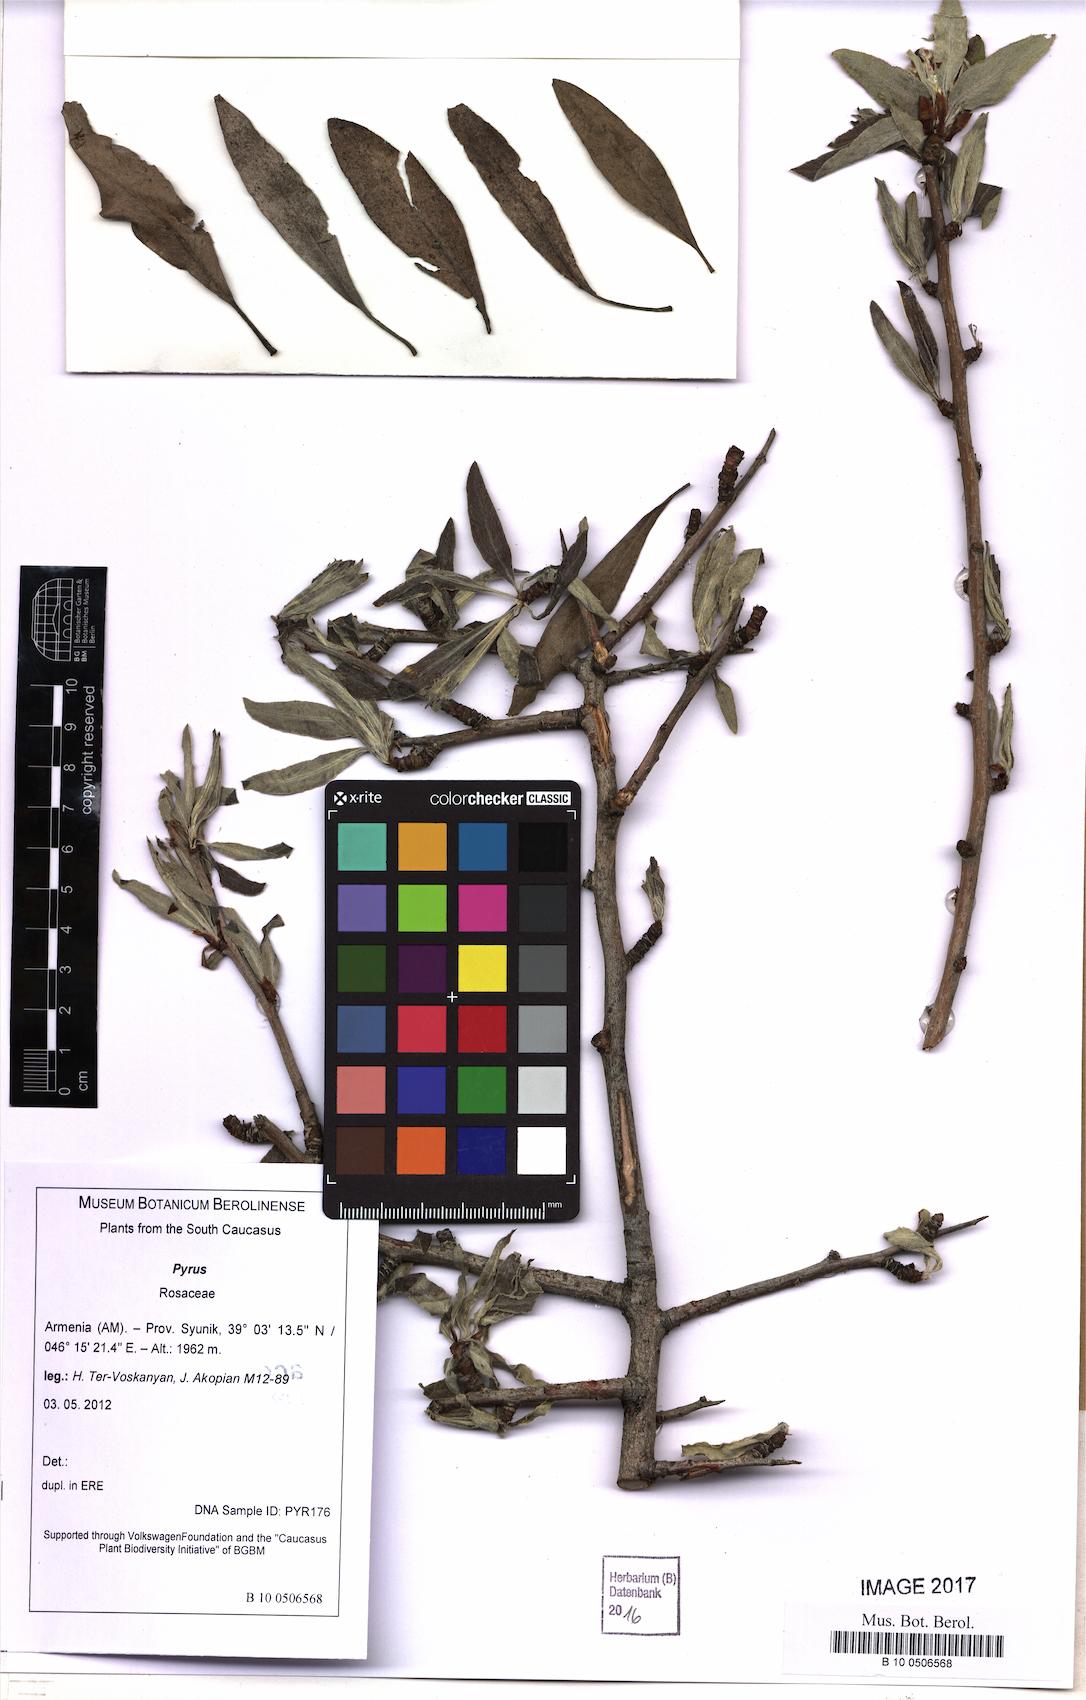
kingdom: Plantae
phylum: Tracheophyta
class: Magnoliopsida
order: Rosales
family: Rosaceae
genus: Pyrus
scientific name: Pyrus
